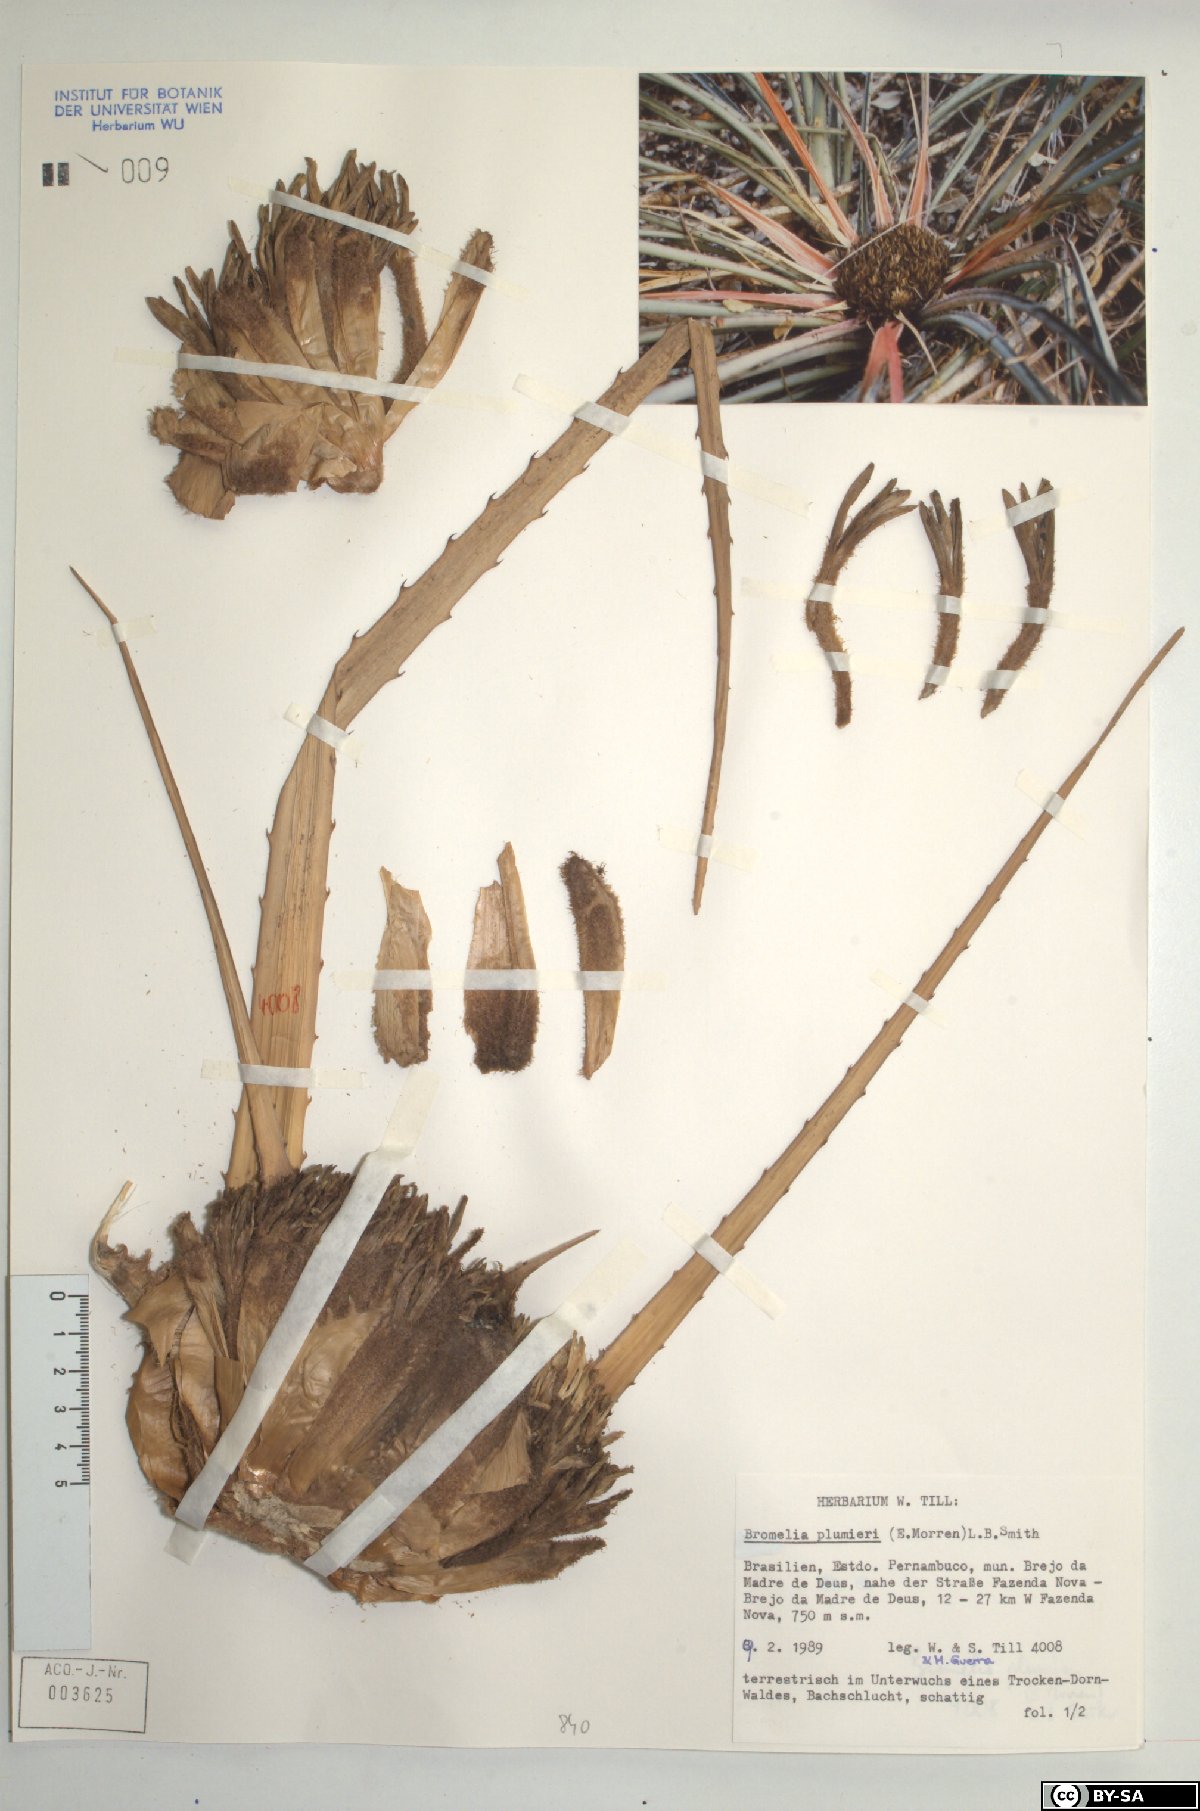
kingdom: Plantae
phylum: Tracheophyta
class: Liliopsida
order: Poales
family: Bromeliaceae
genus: Bromelia
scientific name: Bromelia karatas
